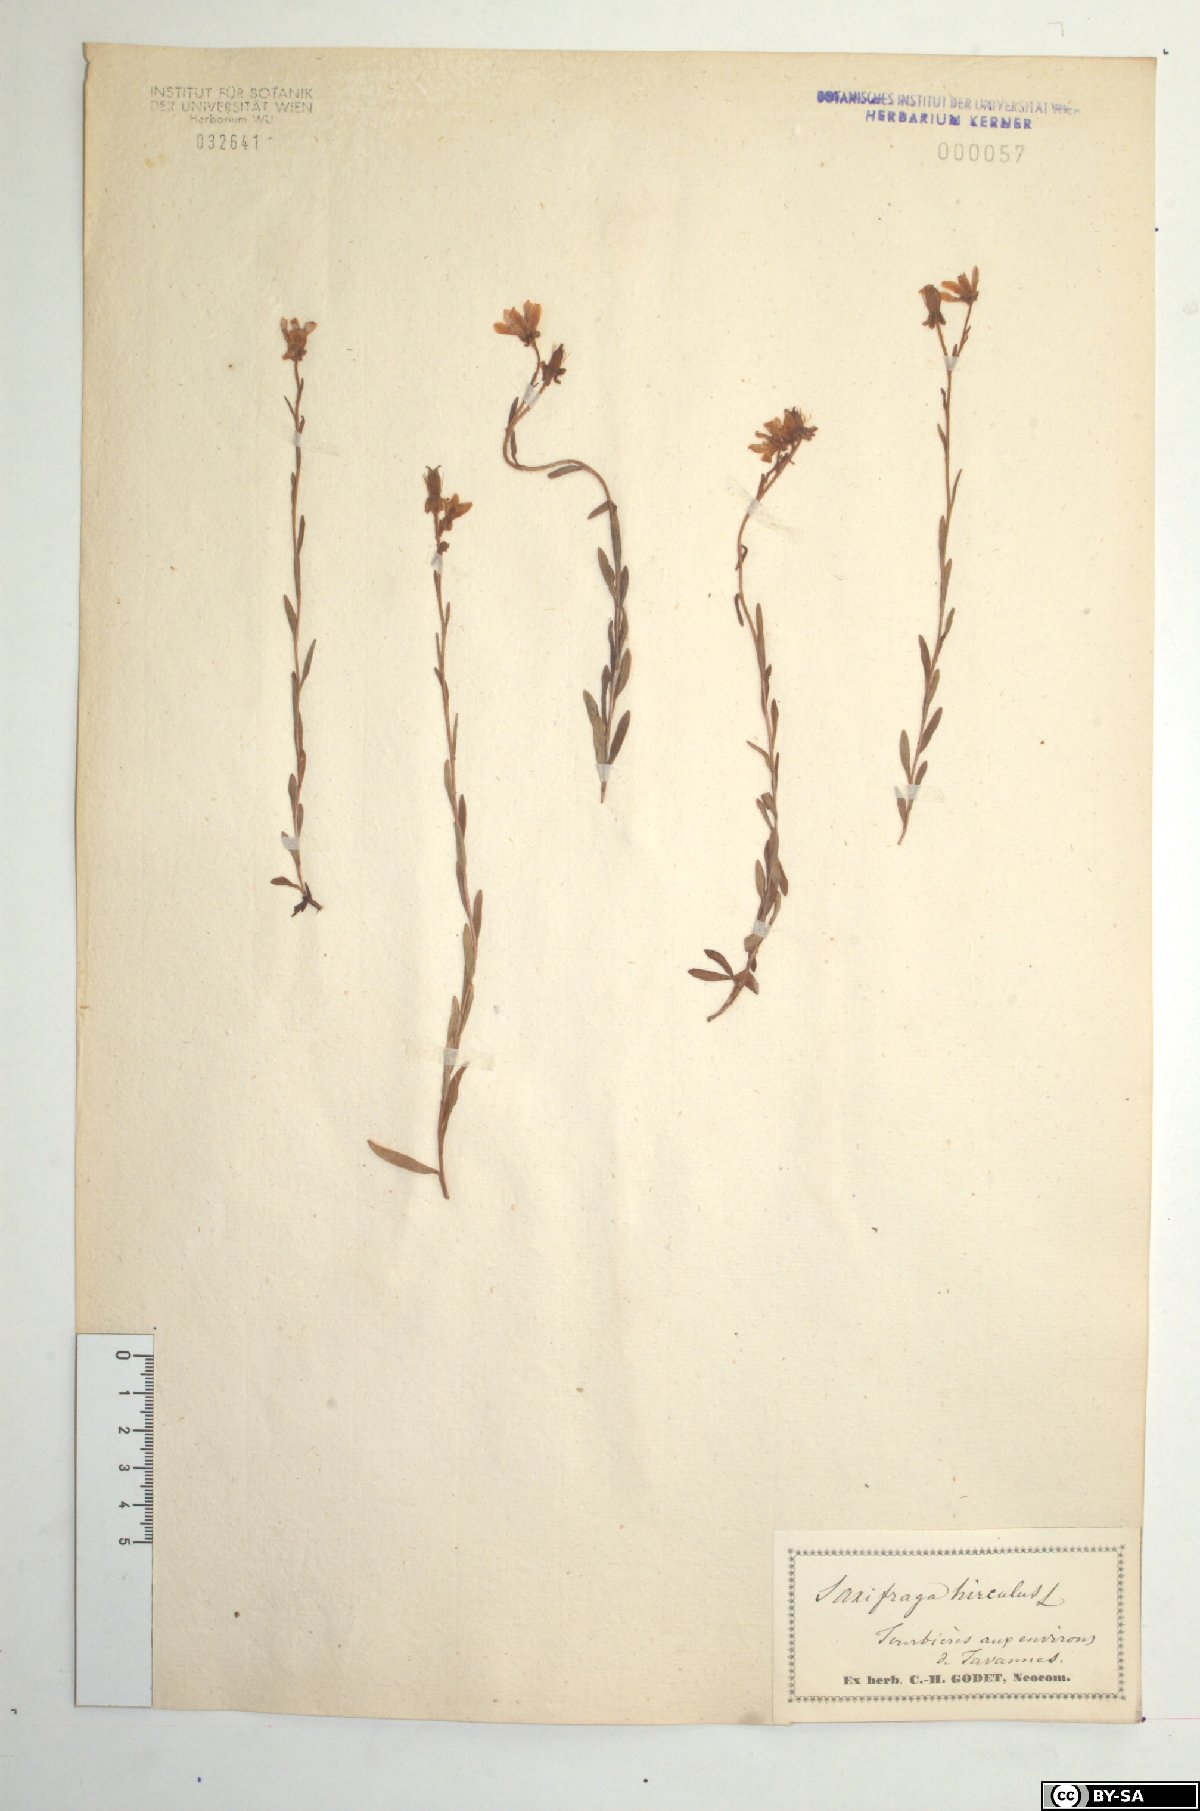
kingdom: Plantae
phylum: Tracheophyta
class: Magnoliopsida
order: Saxifragales
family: Saxifragaceae
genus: Saxifraga
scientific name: Saxifraga hirculus
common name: Yellow marsh saxifrage
